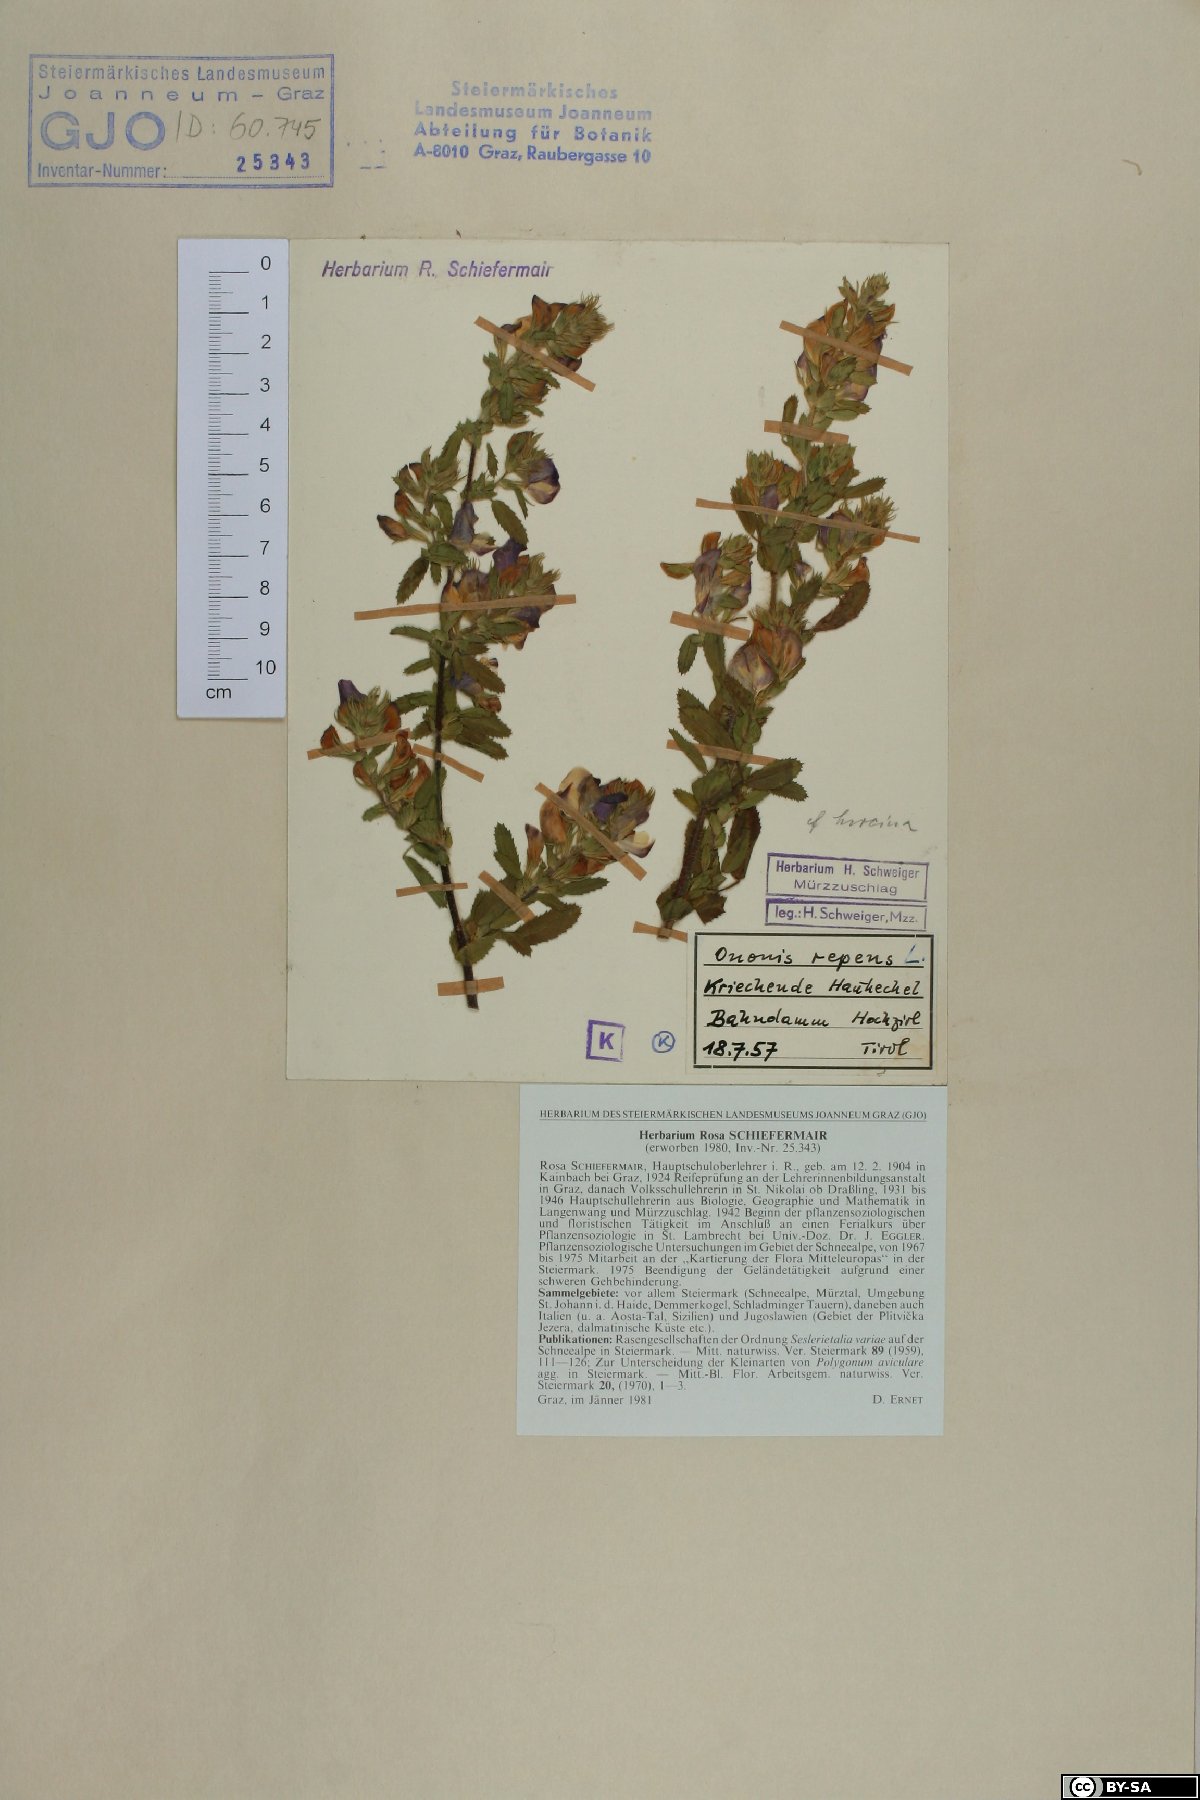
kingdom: Plantae
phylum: Tracheophyta
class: Magnoliopsida
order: Fabales
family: Fabaceae
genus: Ononis
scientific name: Ononis spinosa
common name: Spiny restharrow
